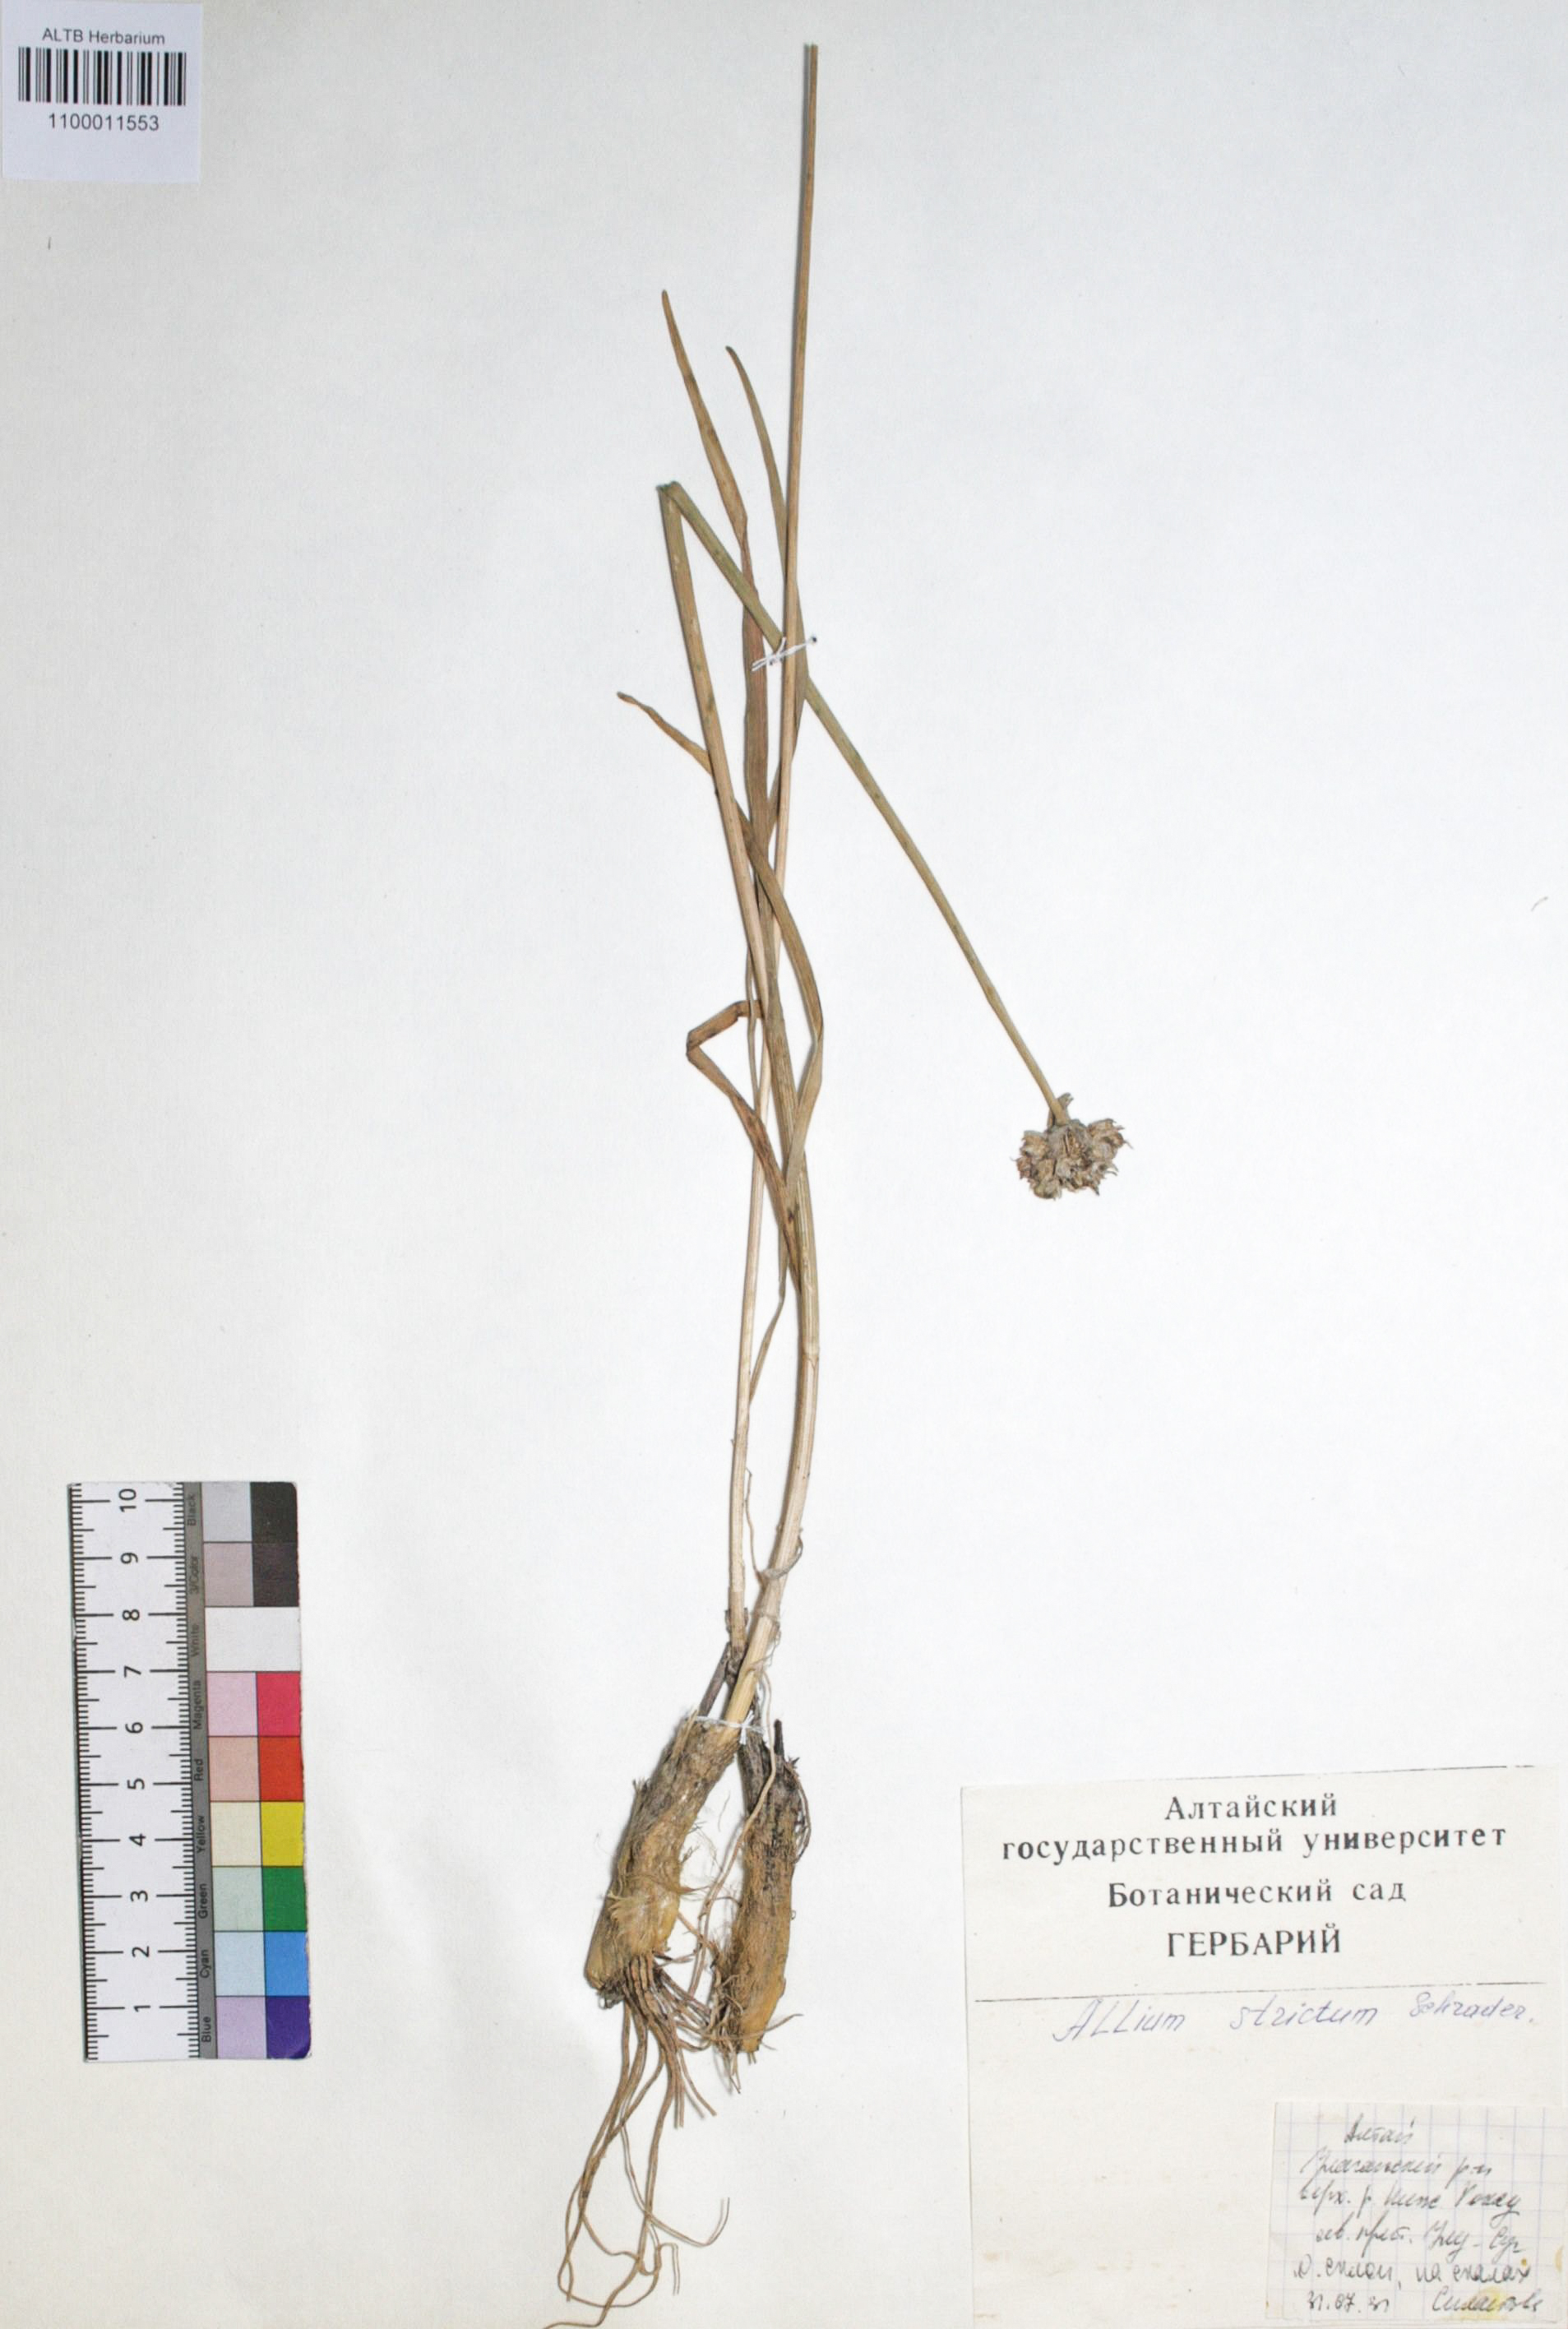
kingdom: Plantae
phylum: Tracheophyta
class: Liliopsida
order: Asparagales
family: Amaryllidaceae
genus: Allium
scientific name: Allium strictum
